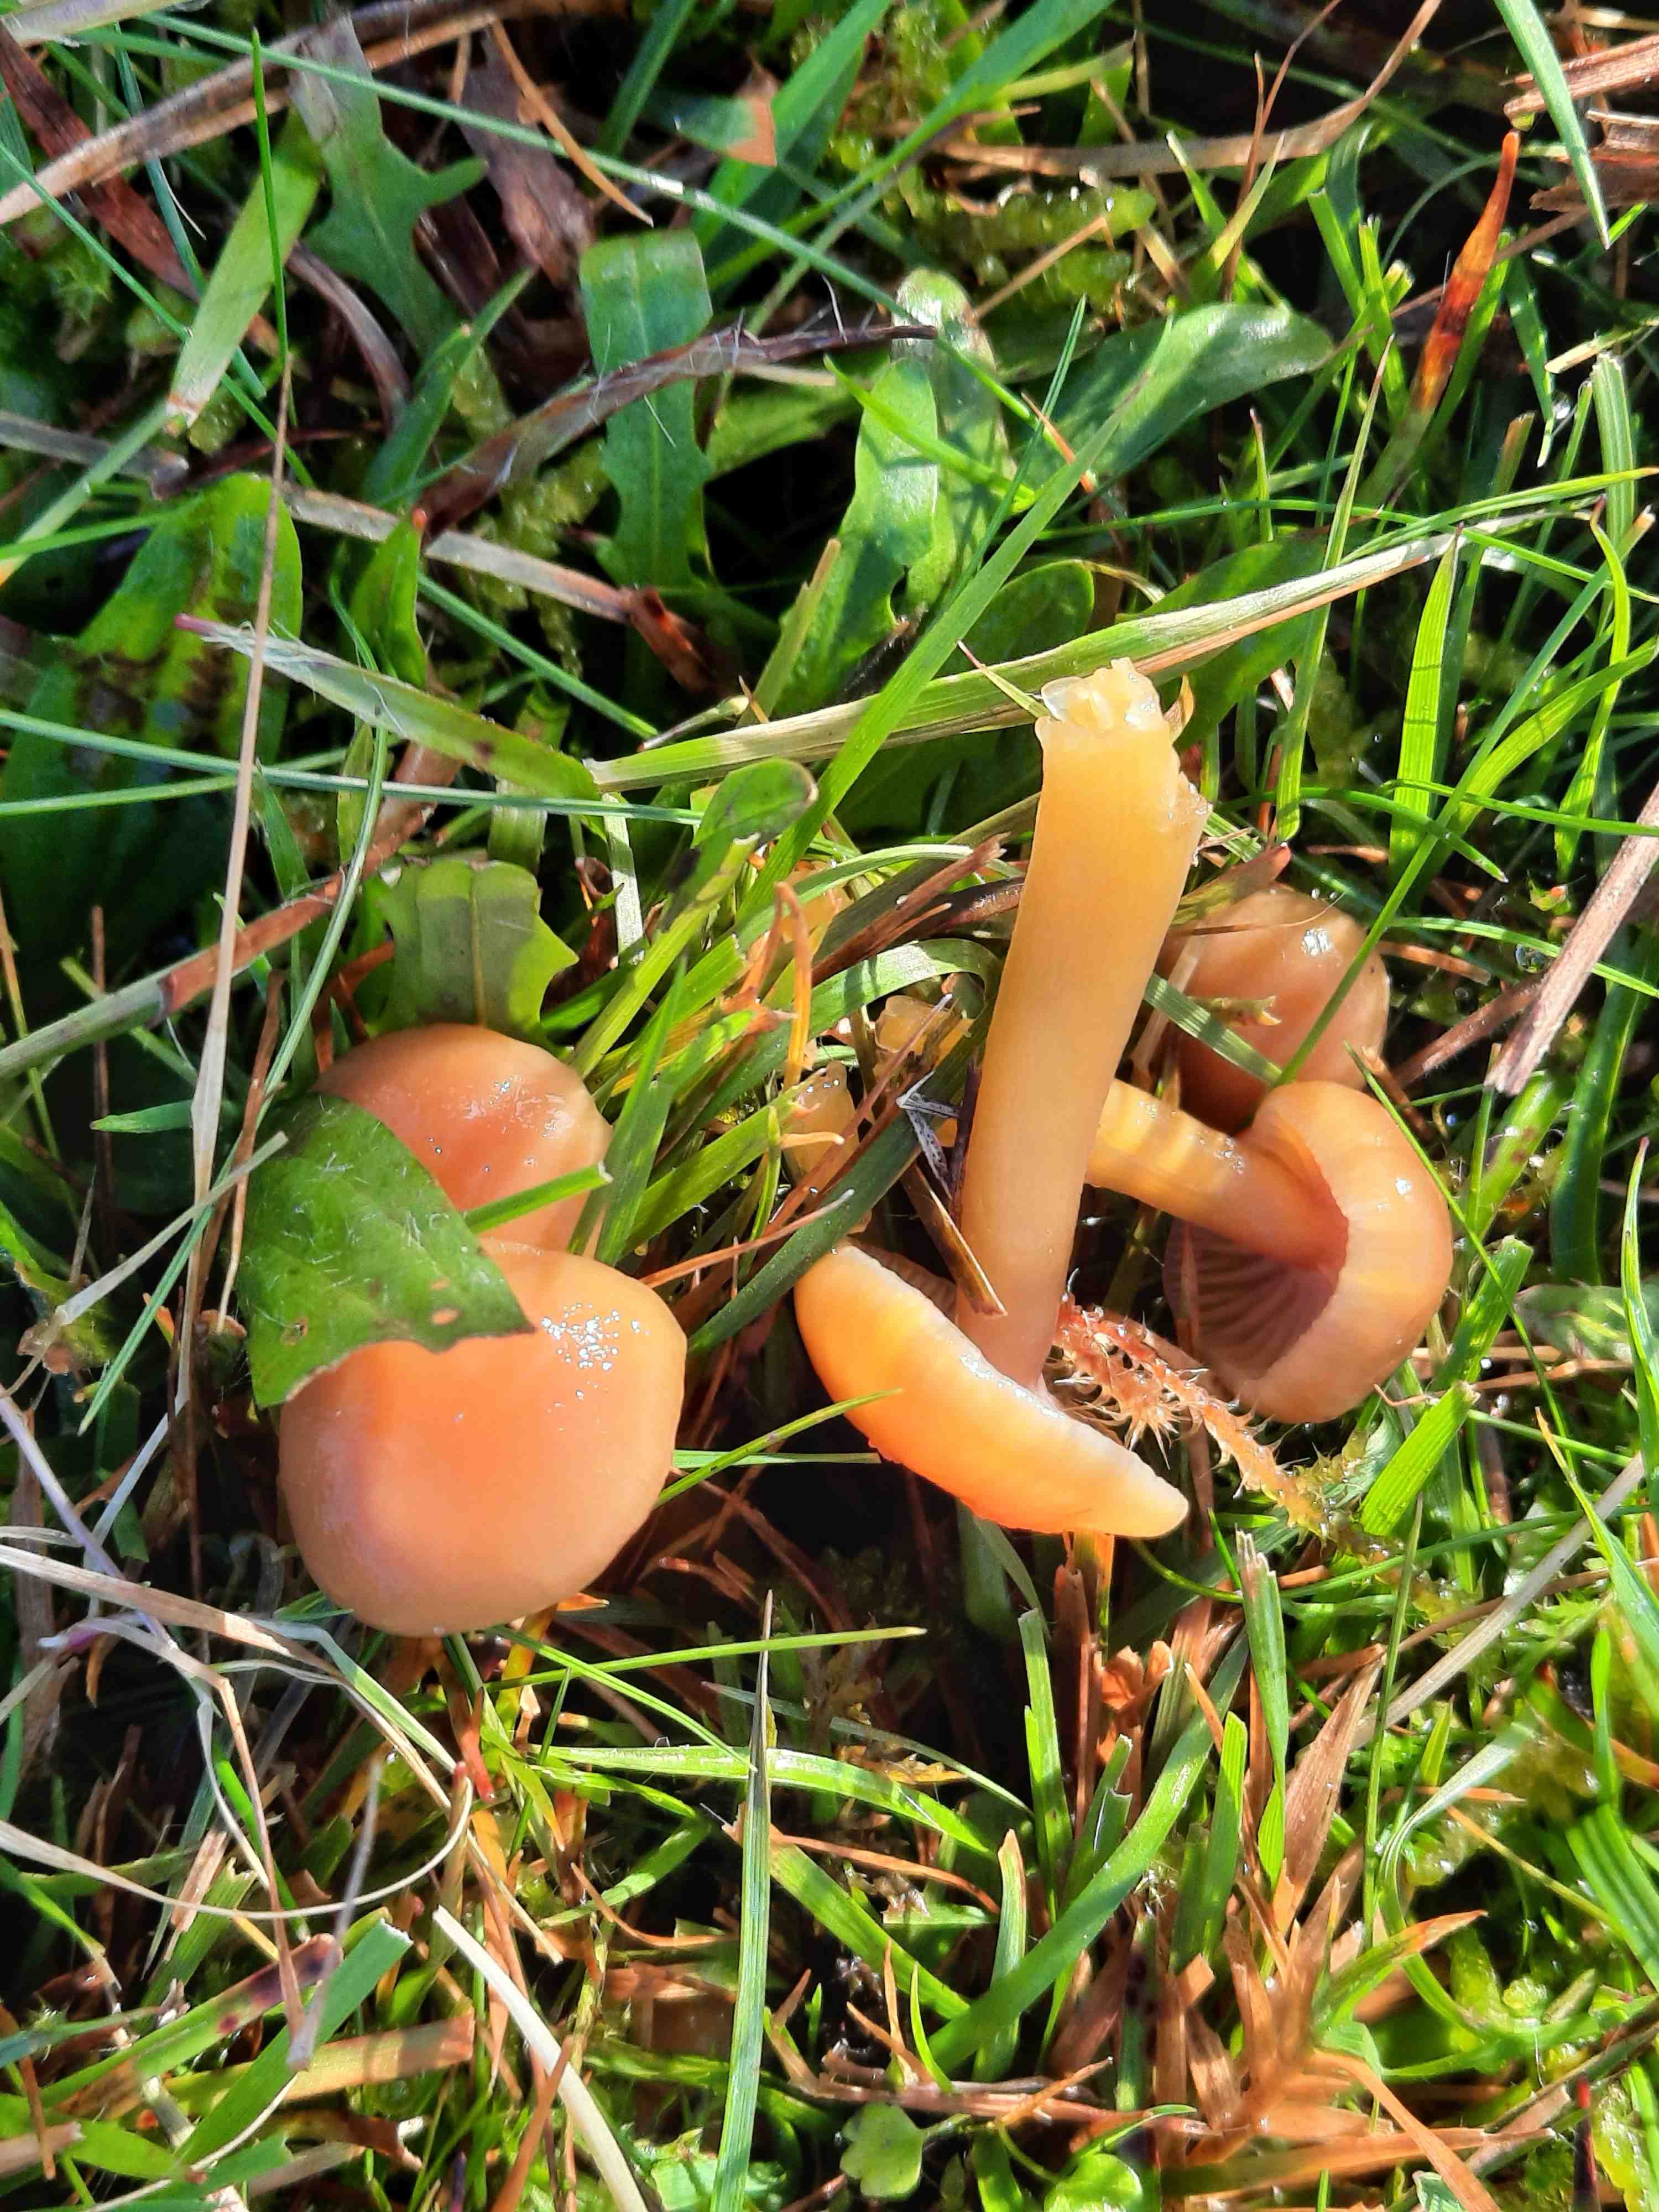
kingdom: Fungi
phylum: Basidiomycota
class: Agaricomycetes
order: Agaricales
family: Hygrophoraceae
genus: Gliophorus
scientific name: Gliophorus laetus
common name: brusk-vokshat
